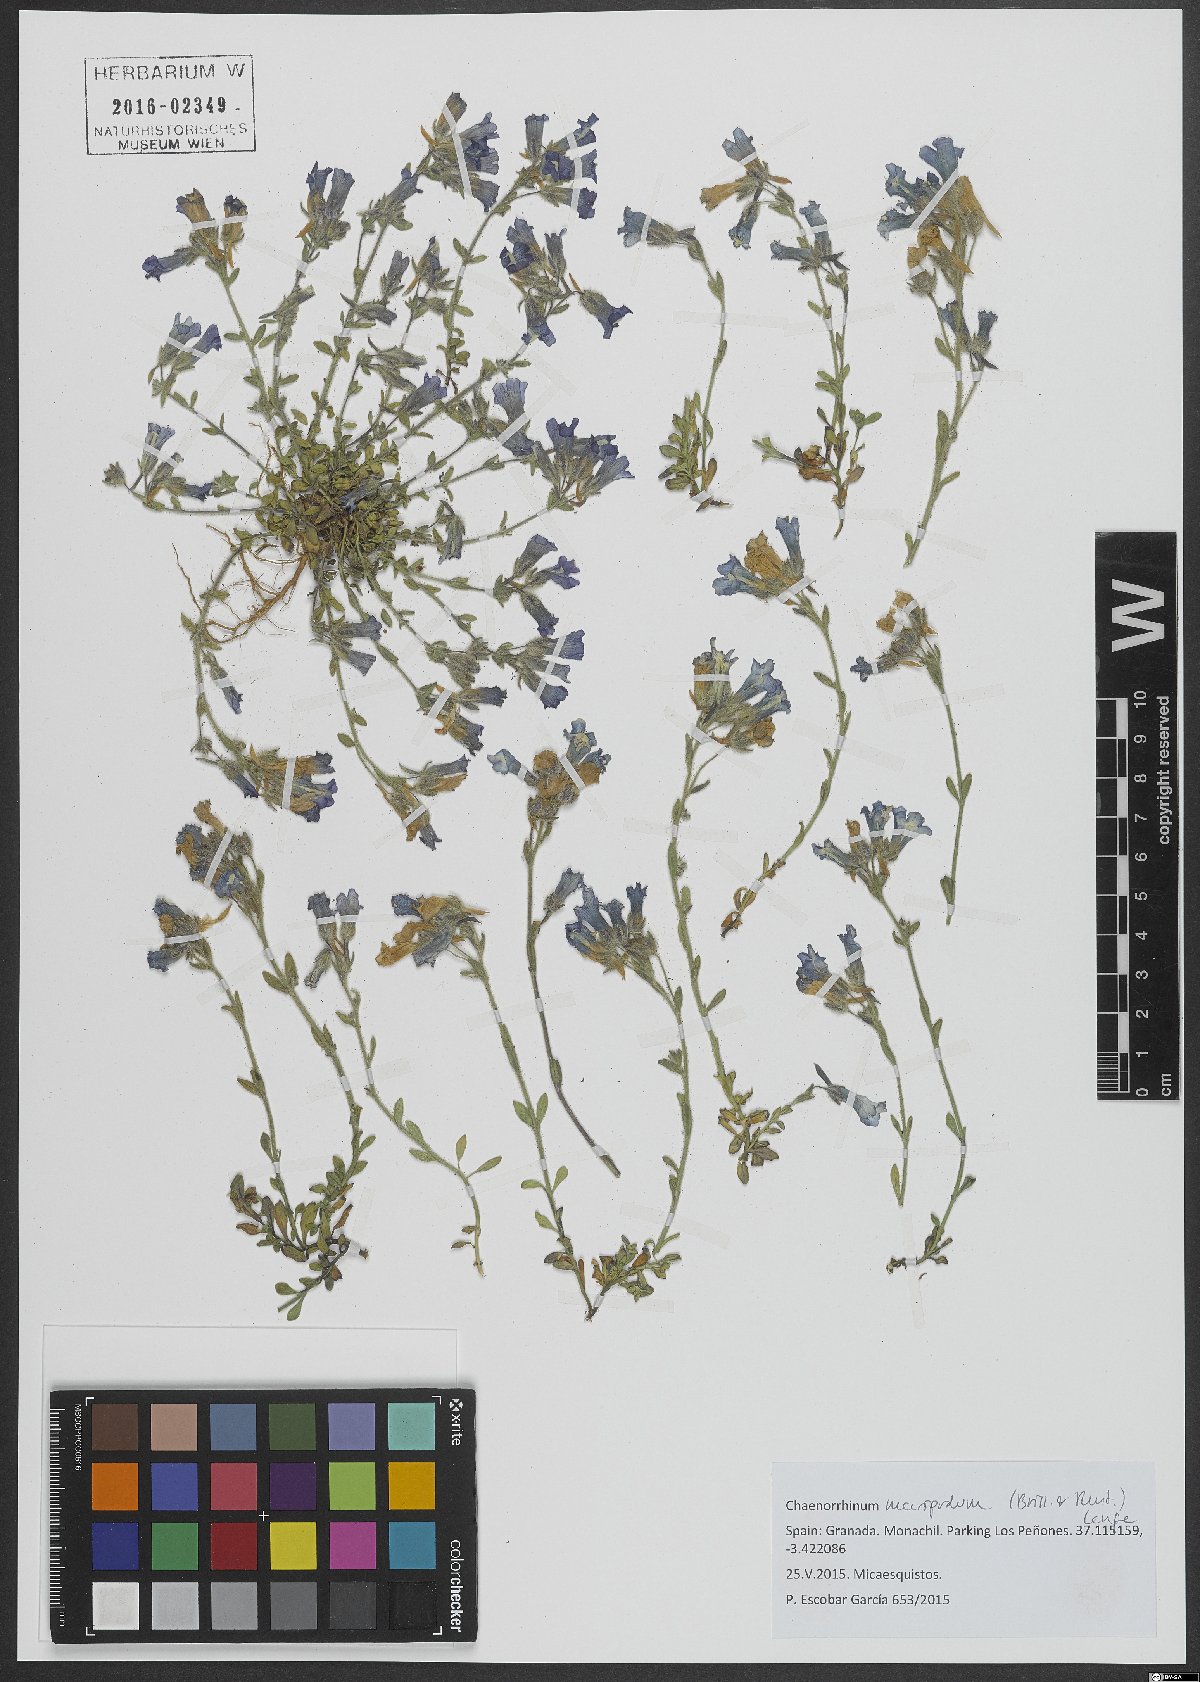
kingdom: Plantae
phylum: Tracheophyta
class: Magnoliopsida
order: Lamiales
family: Plantaginaceae
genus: Chaenorhinum
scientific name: Chaenorhinum macropodum
